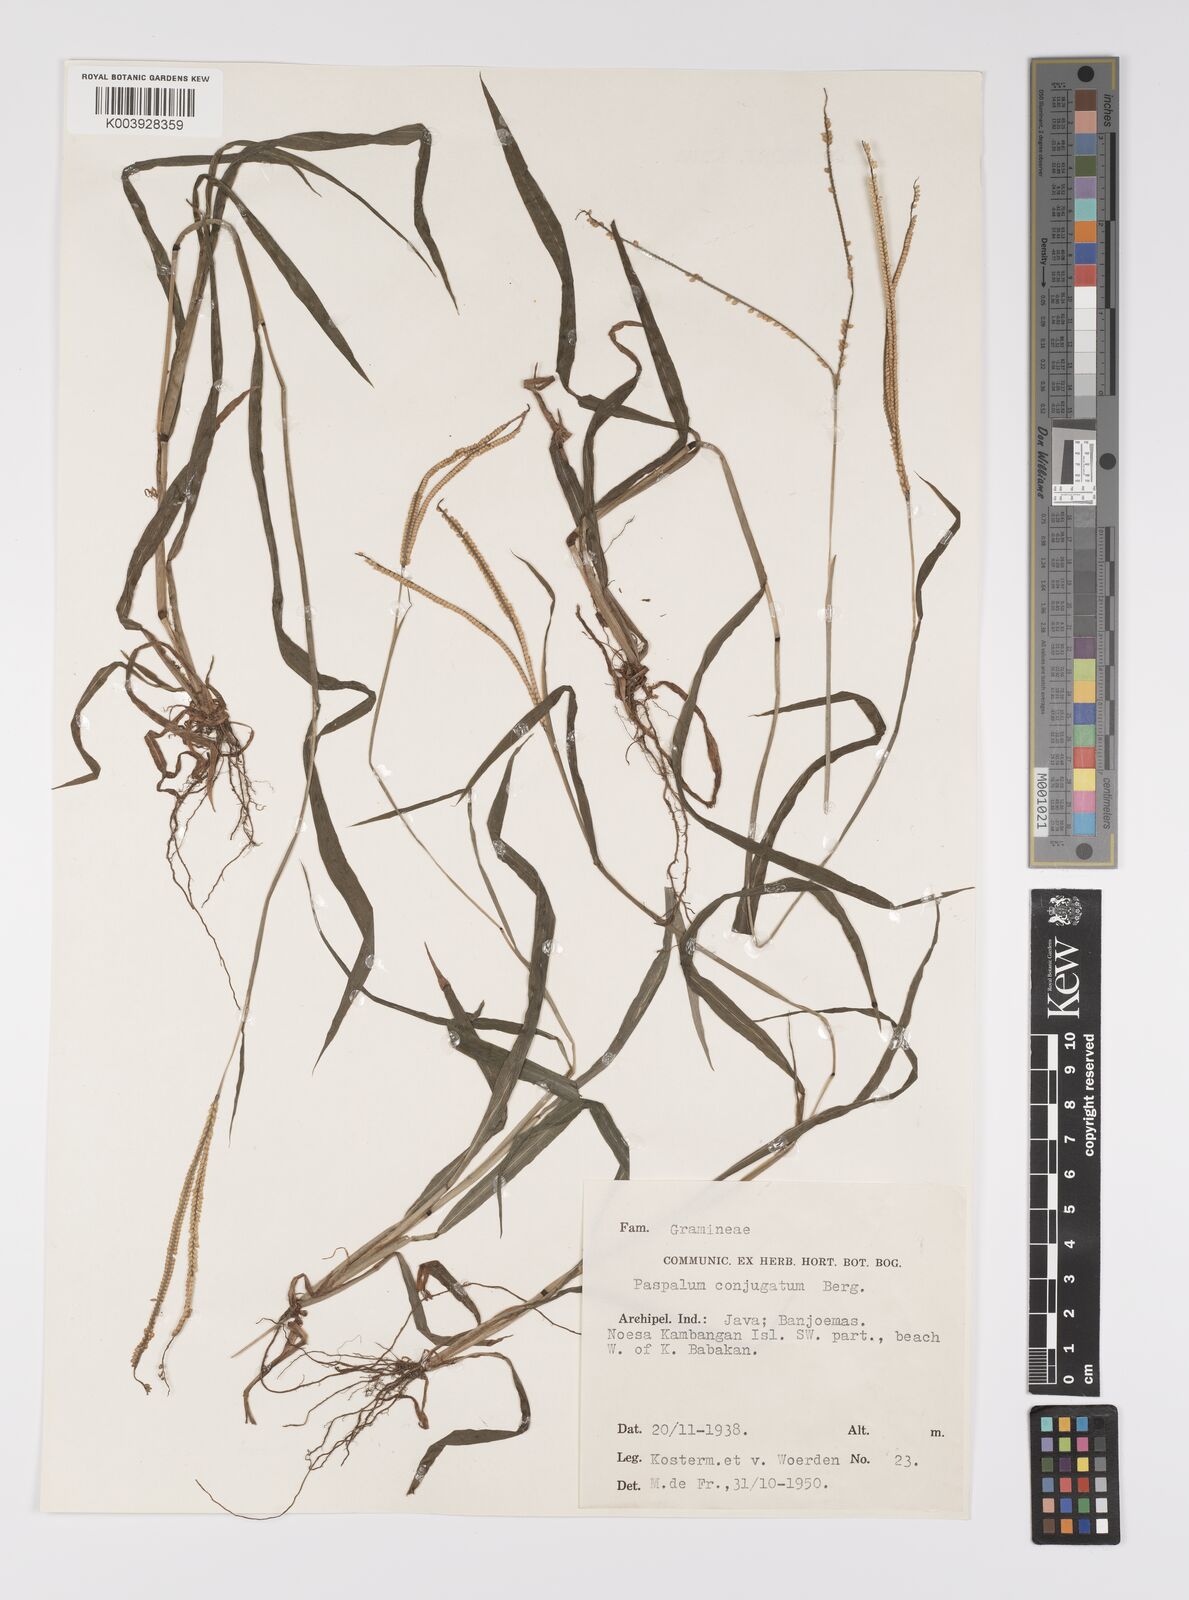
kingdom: Plantae
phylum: Tracheophyta
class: Liliopsida
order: Poales
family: Poaceae
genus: Paspalum
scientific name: Paspalum conjugatum
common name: Hilograss
